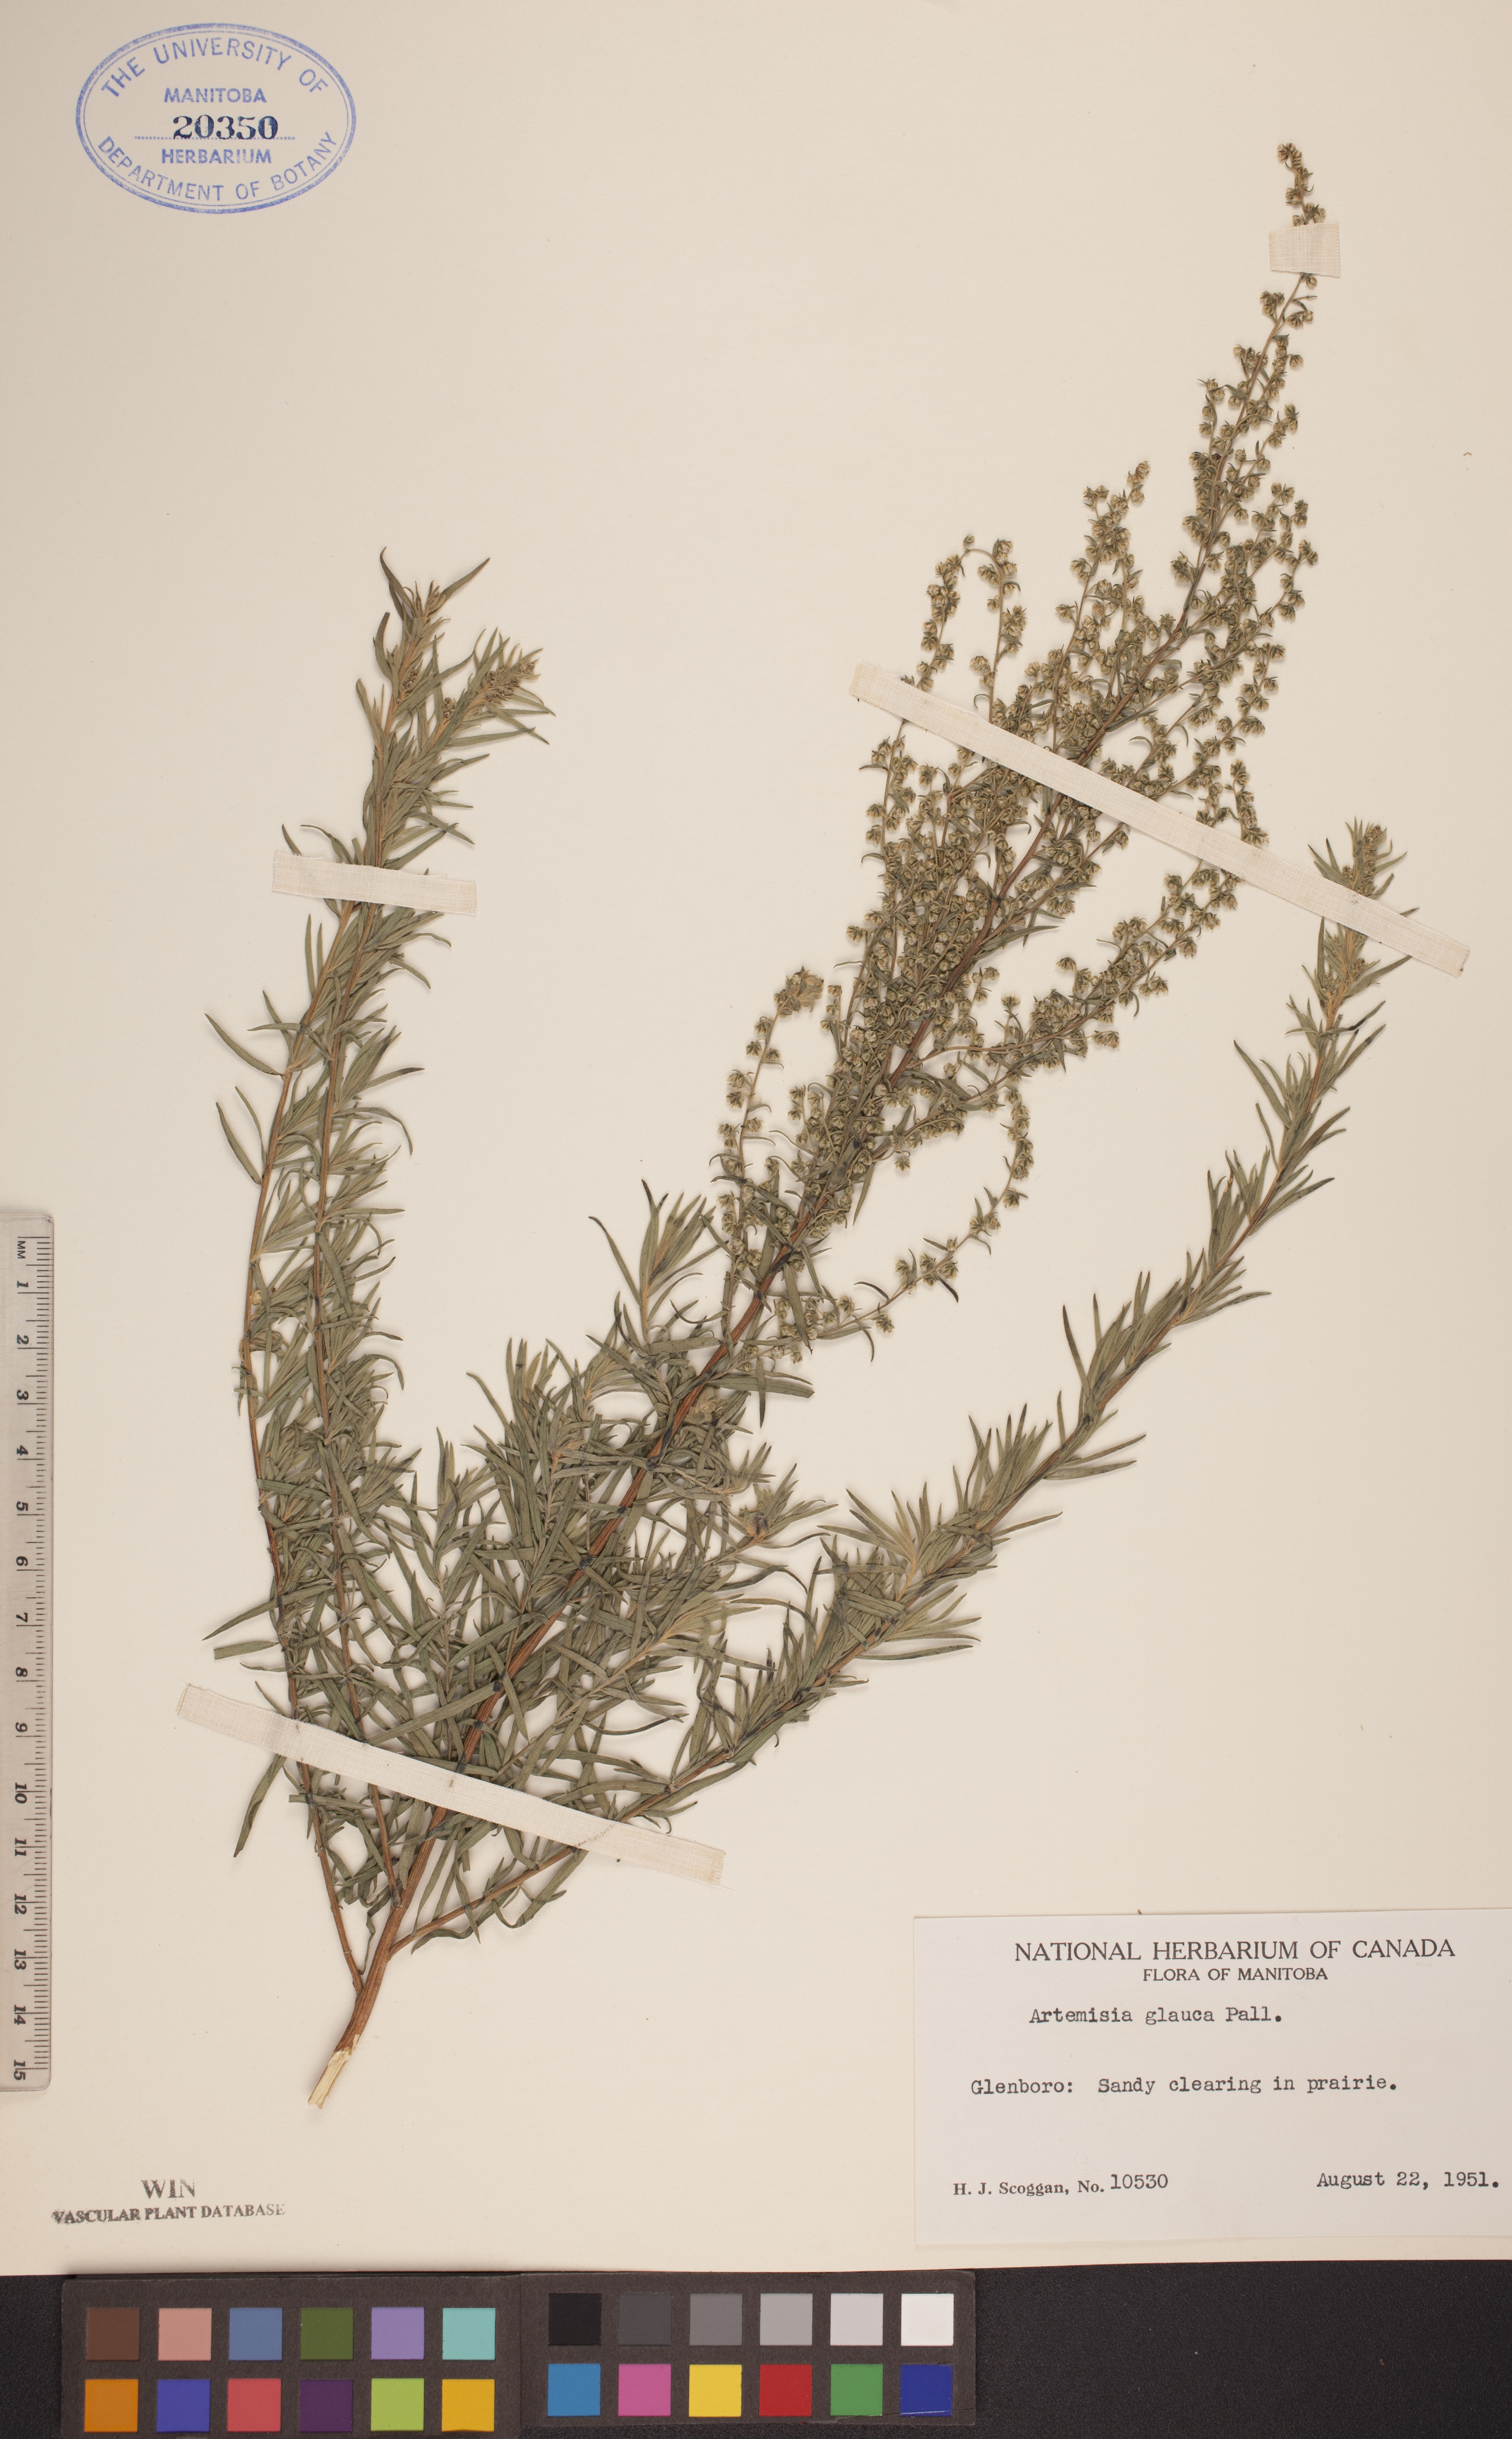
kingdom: Plantae
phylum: Tracheophyta
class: Magnoliopsida
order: Asterales
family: Asteraceae
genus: Artemisia
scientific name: Artemisia glauca
